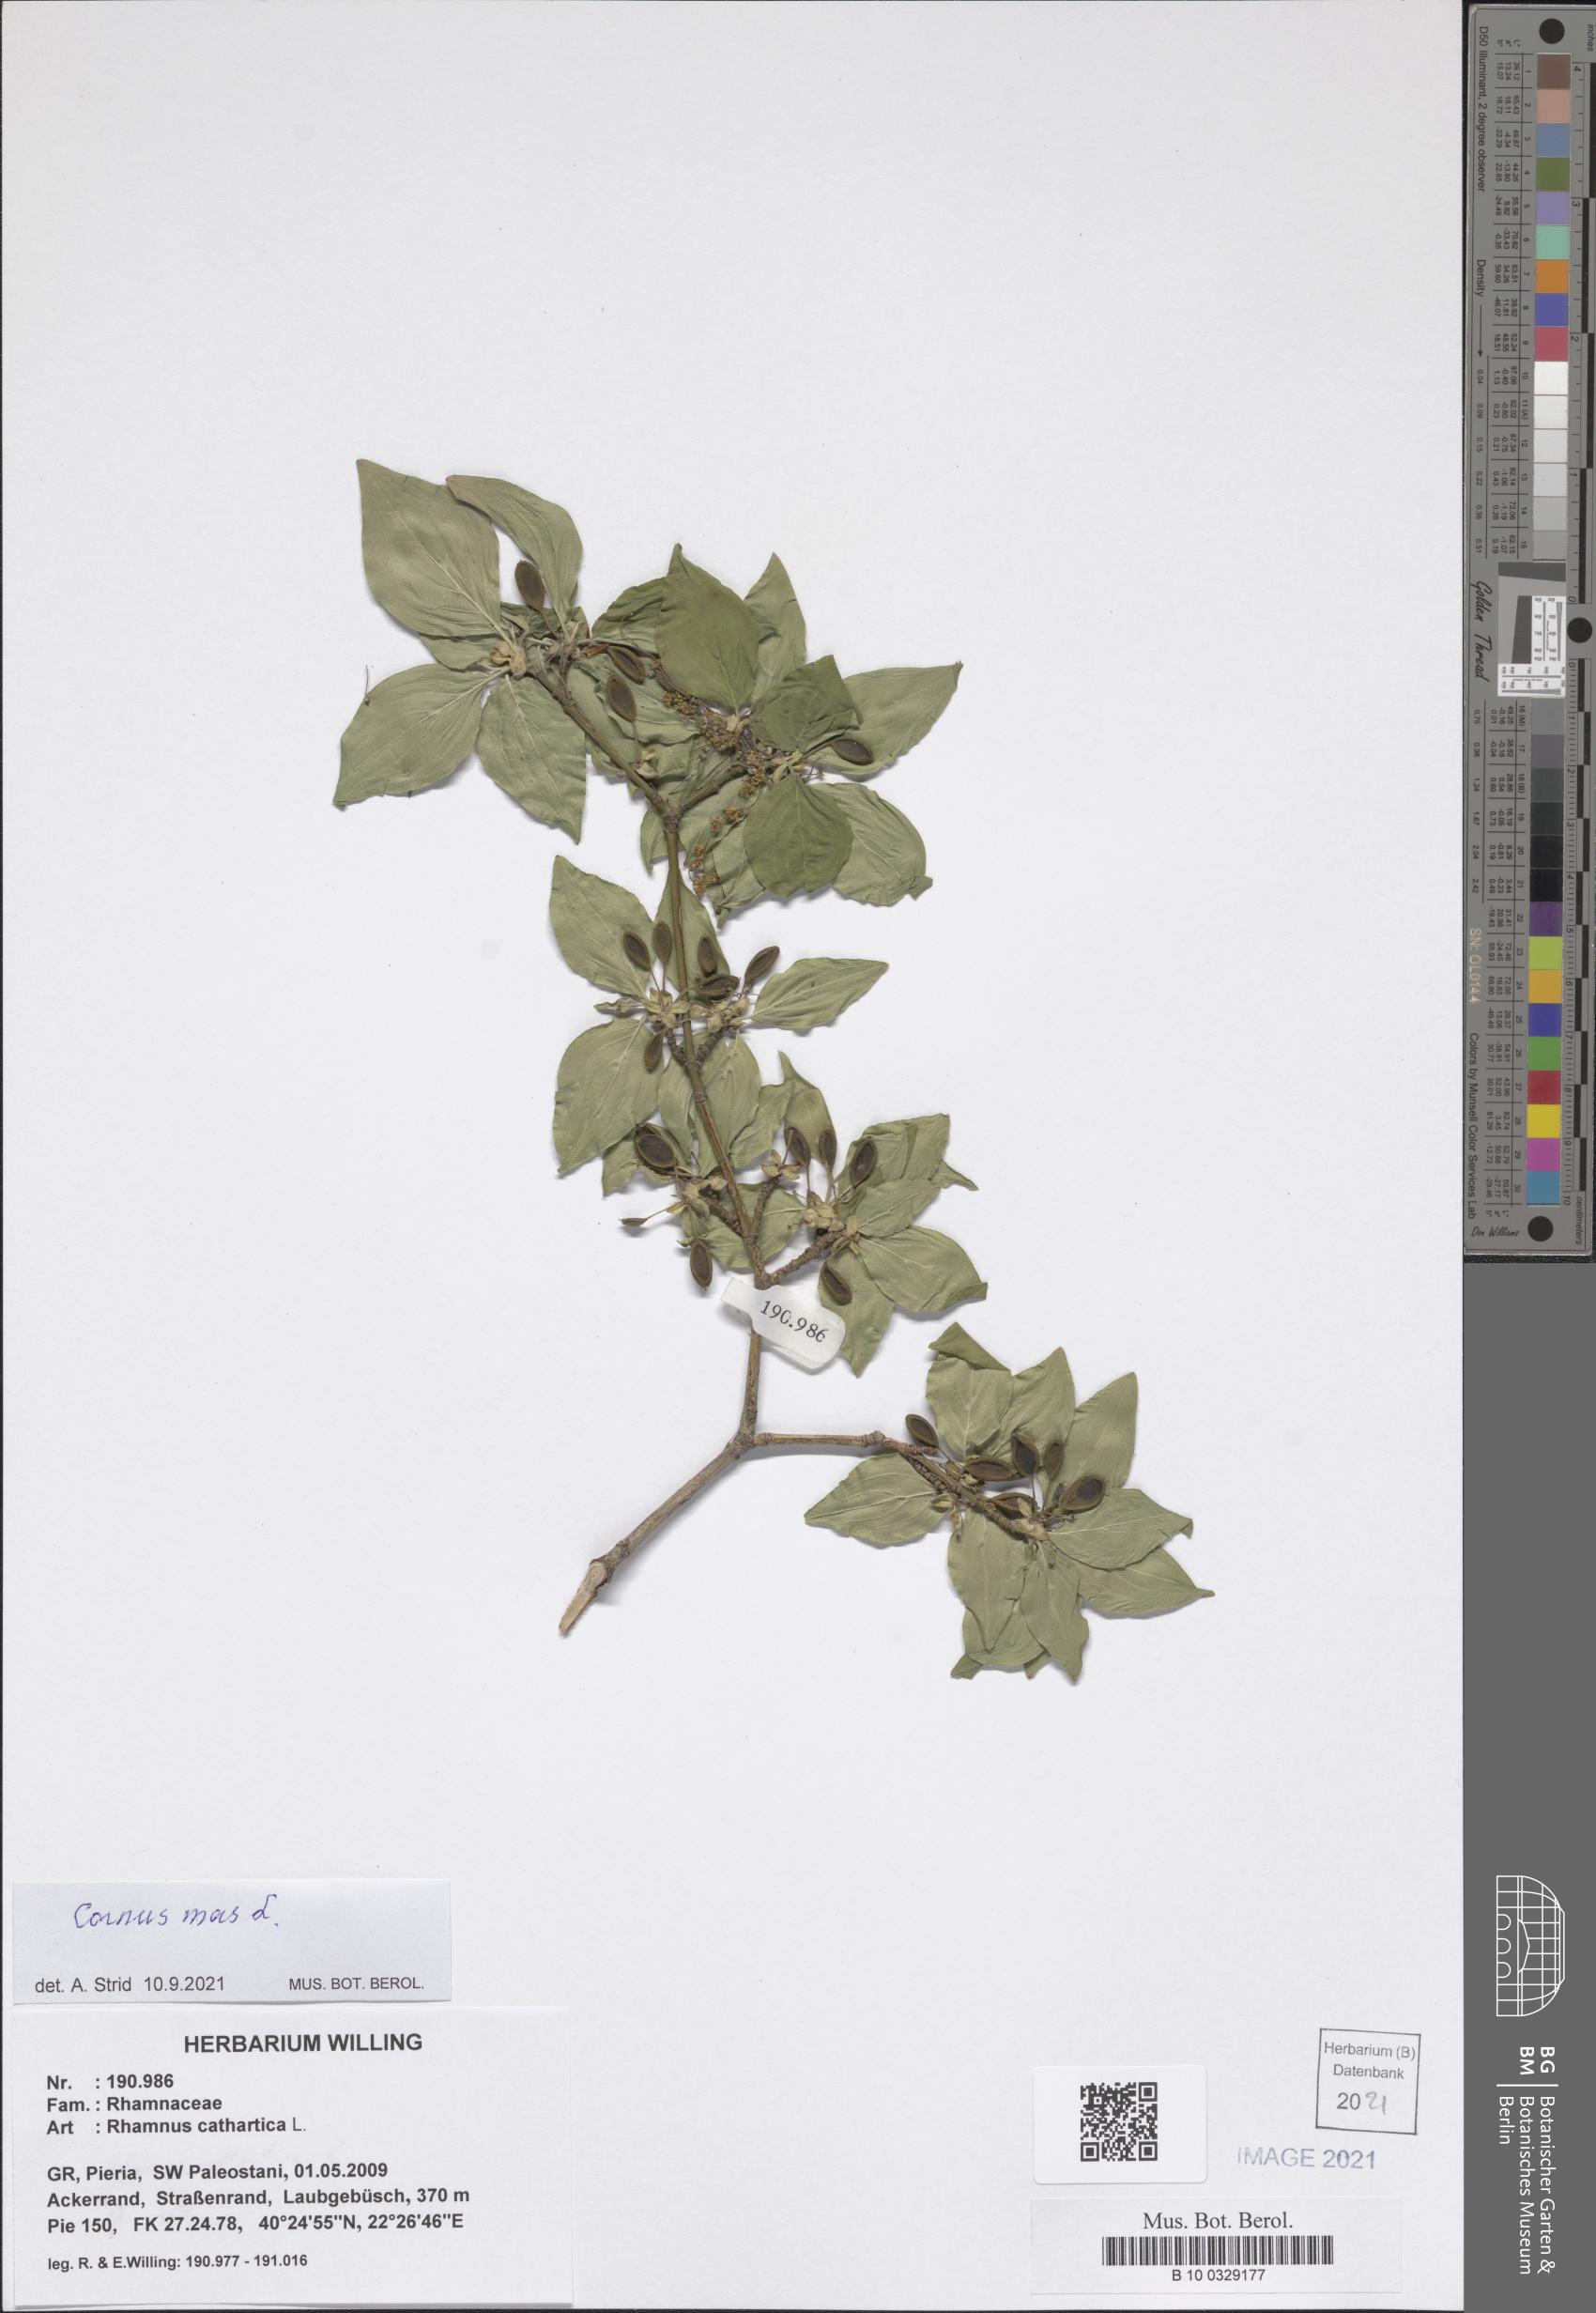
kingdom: Plantae
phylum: Tracheophyta
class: Magnoliopsida
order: Cornales
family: Cornaceae
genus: Cornus
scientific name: Cornus mas
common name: Cornelian-cherry
